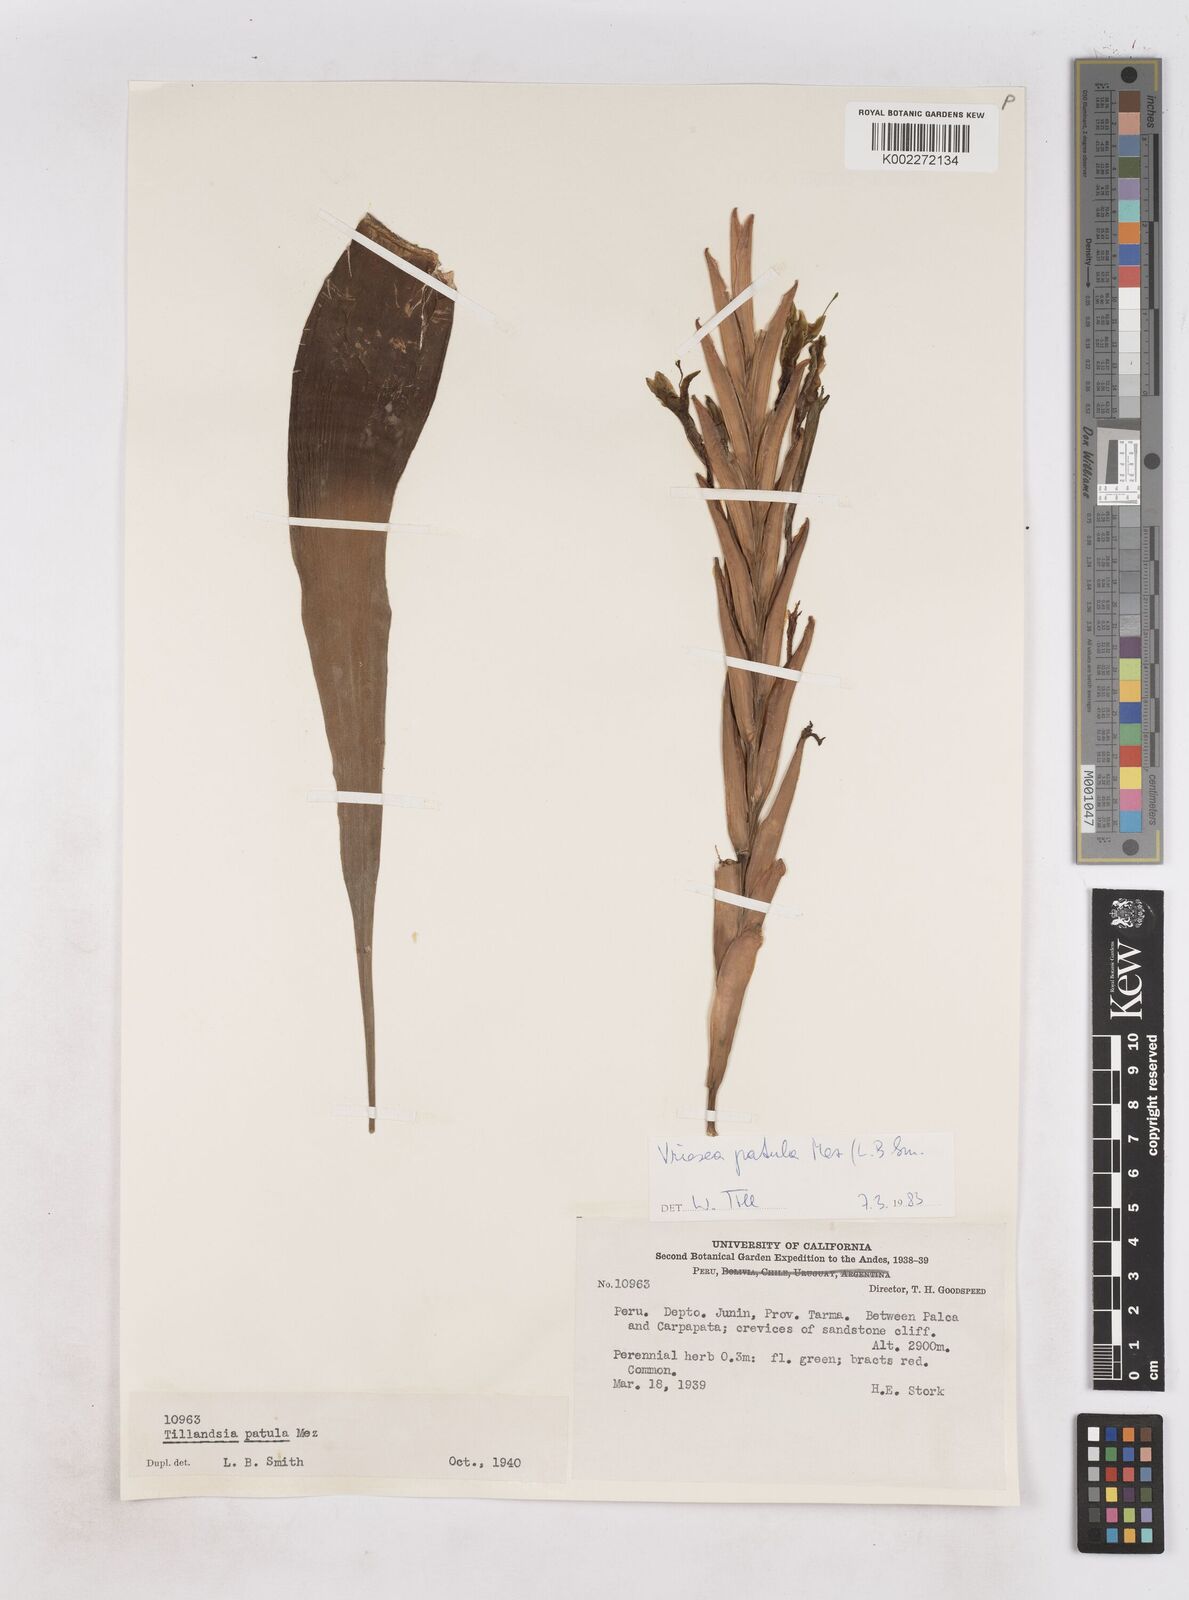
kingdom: Plantae
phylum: Tracheophyta
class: Liliopsida
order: Poales
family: Bromeliaceae
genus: Vriesea
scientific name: Vriesea patula
